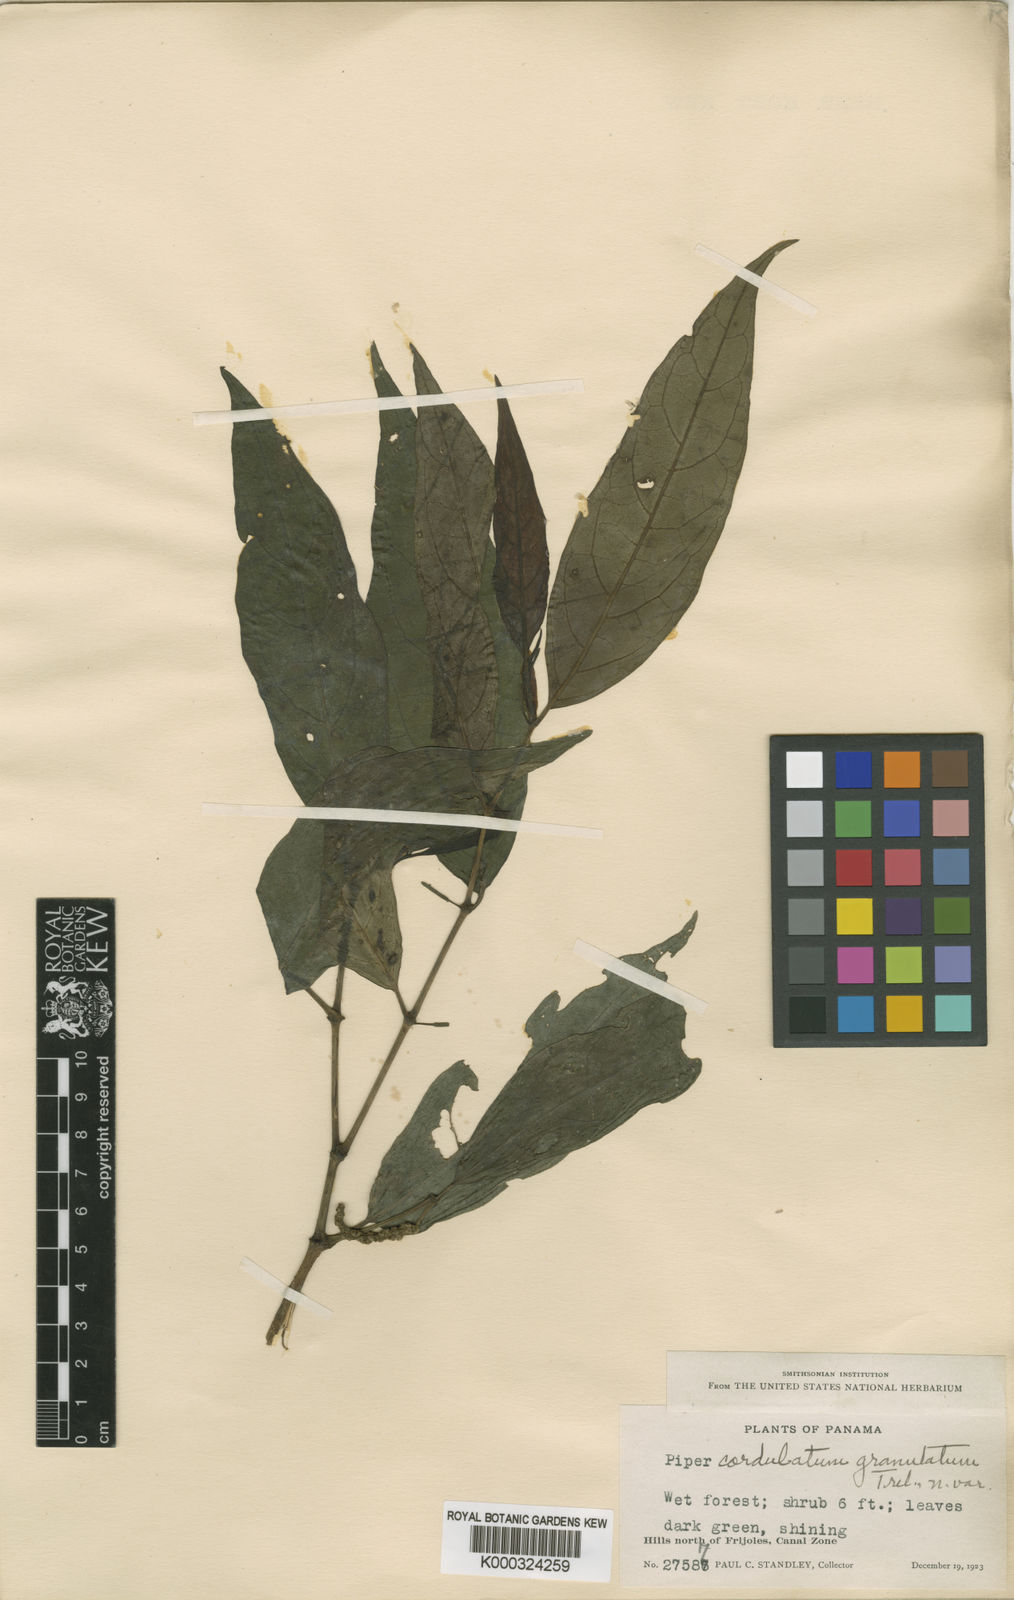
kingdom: Plantae
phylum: Tracheophyta
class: Magnoliopsida
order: Piperales
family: Piperaceae
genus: Piper
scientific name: Piper
